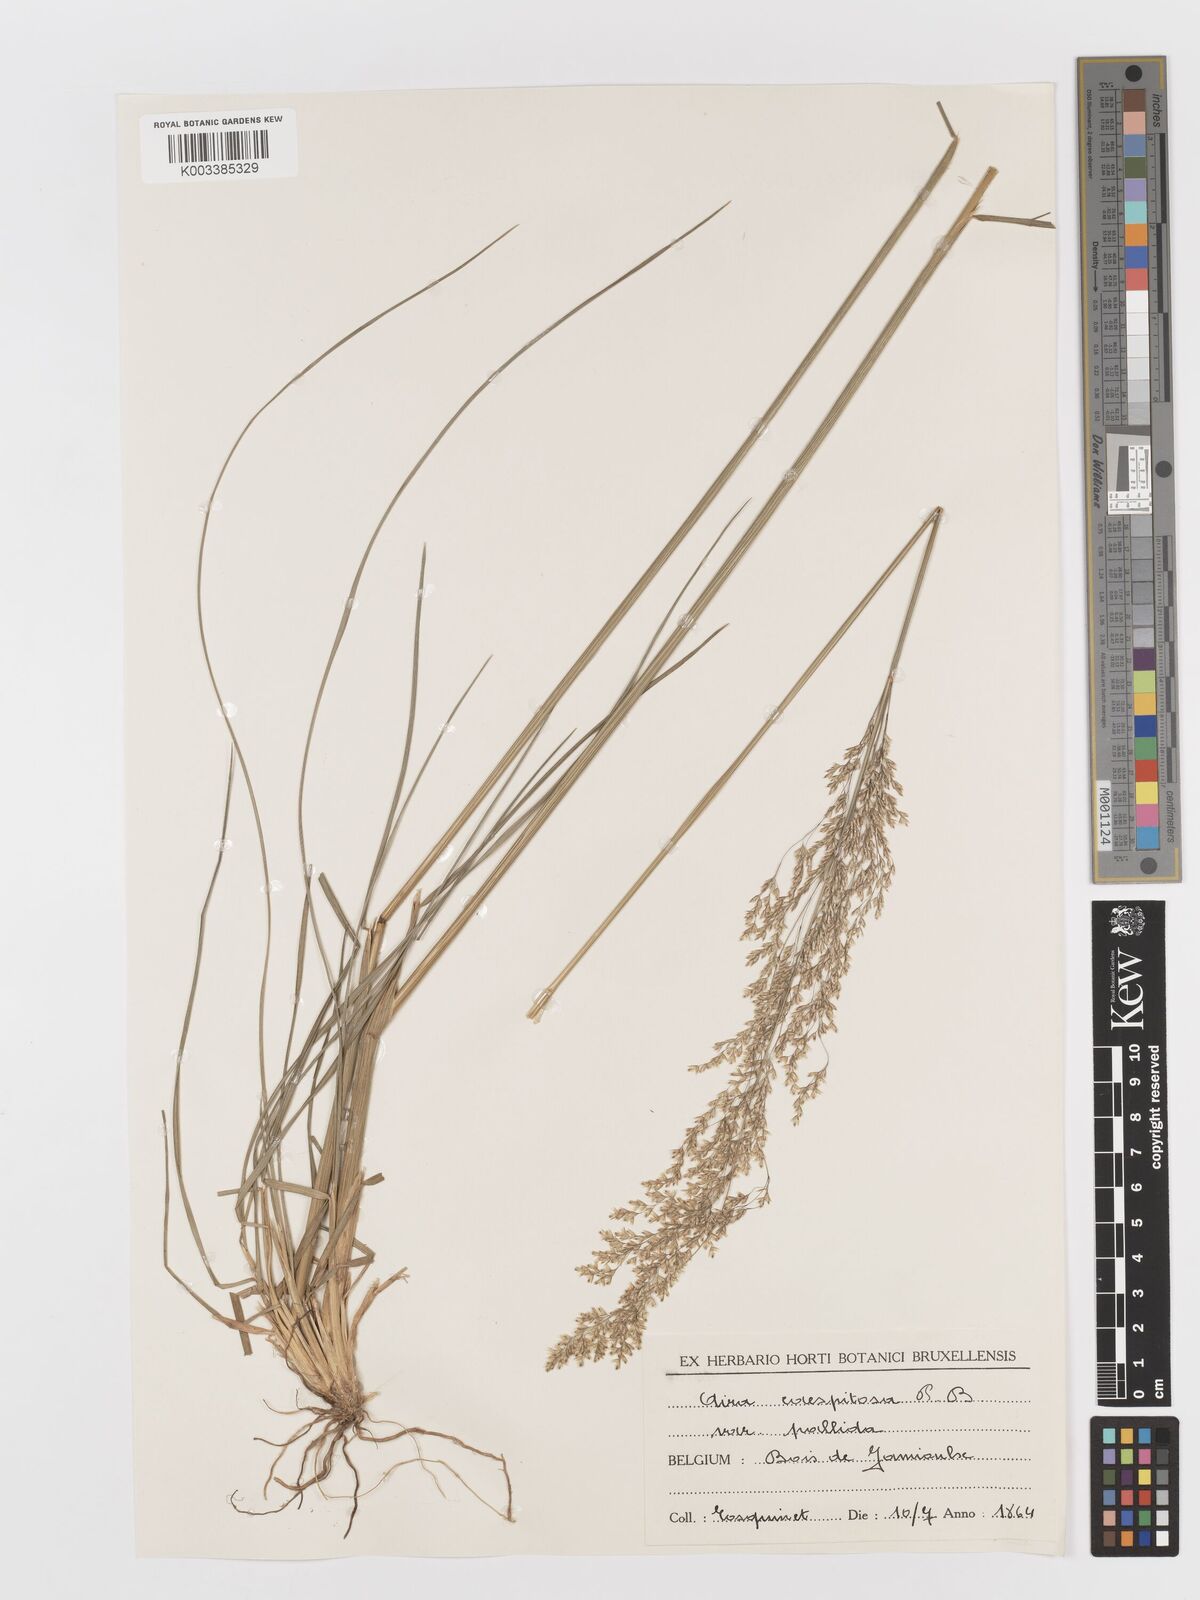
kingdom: Plantae
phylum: Tracheophyta
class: Liliopsida
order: Poales
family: Poaceae
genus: Deschampsia
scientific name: Deschampsia cespitosa
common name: Tufted hair-grass
